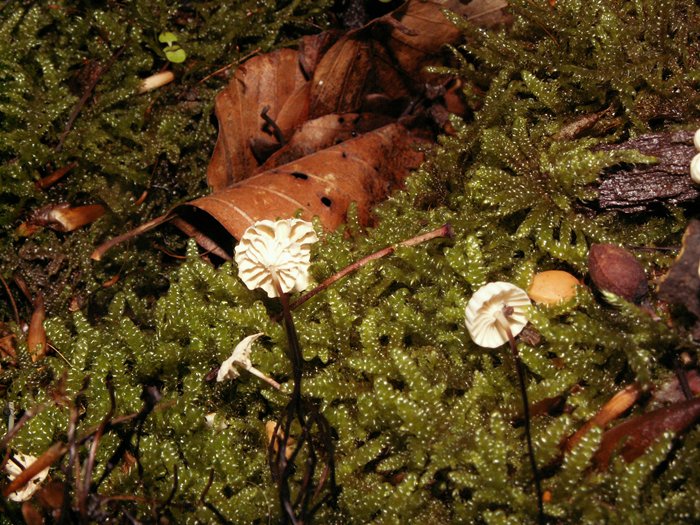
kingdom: Fungi
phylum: Basidiomycota
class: Agaricomycetes
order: Agaricales
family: Marasmiaceae
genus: Marasmius
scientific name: Marasmius rotula
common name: hjul-bruskhat
